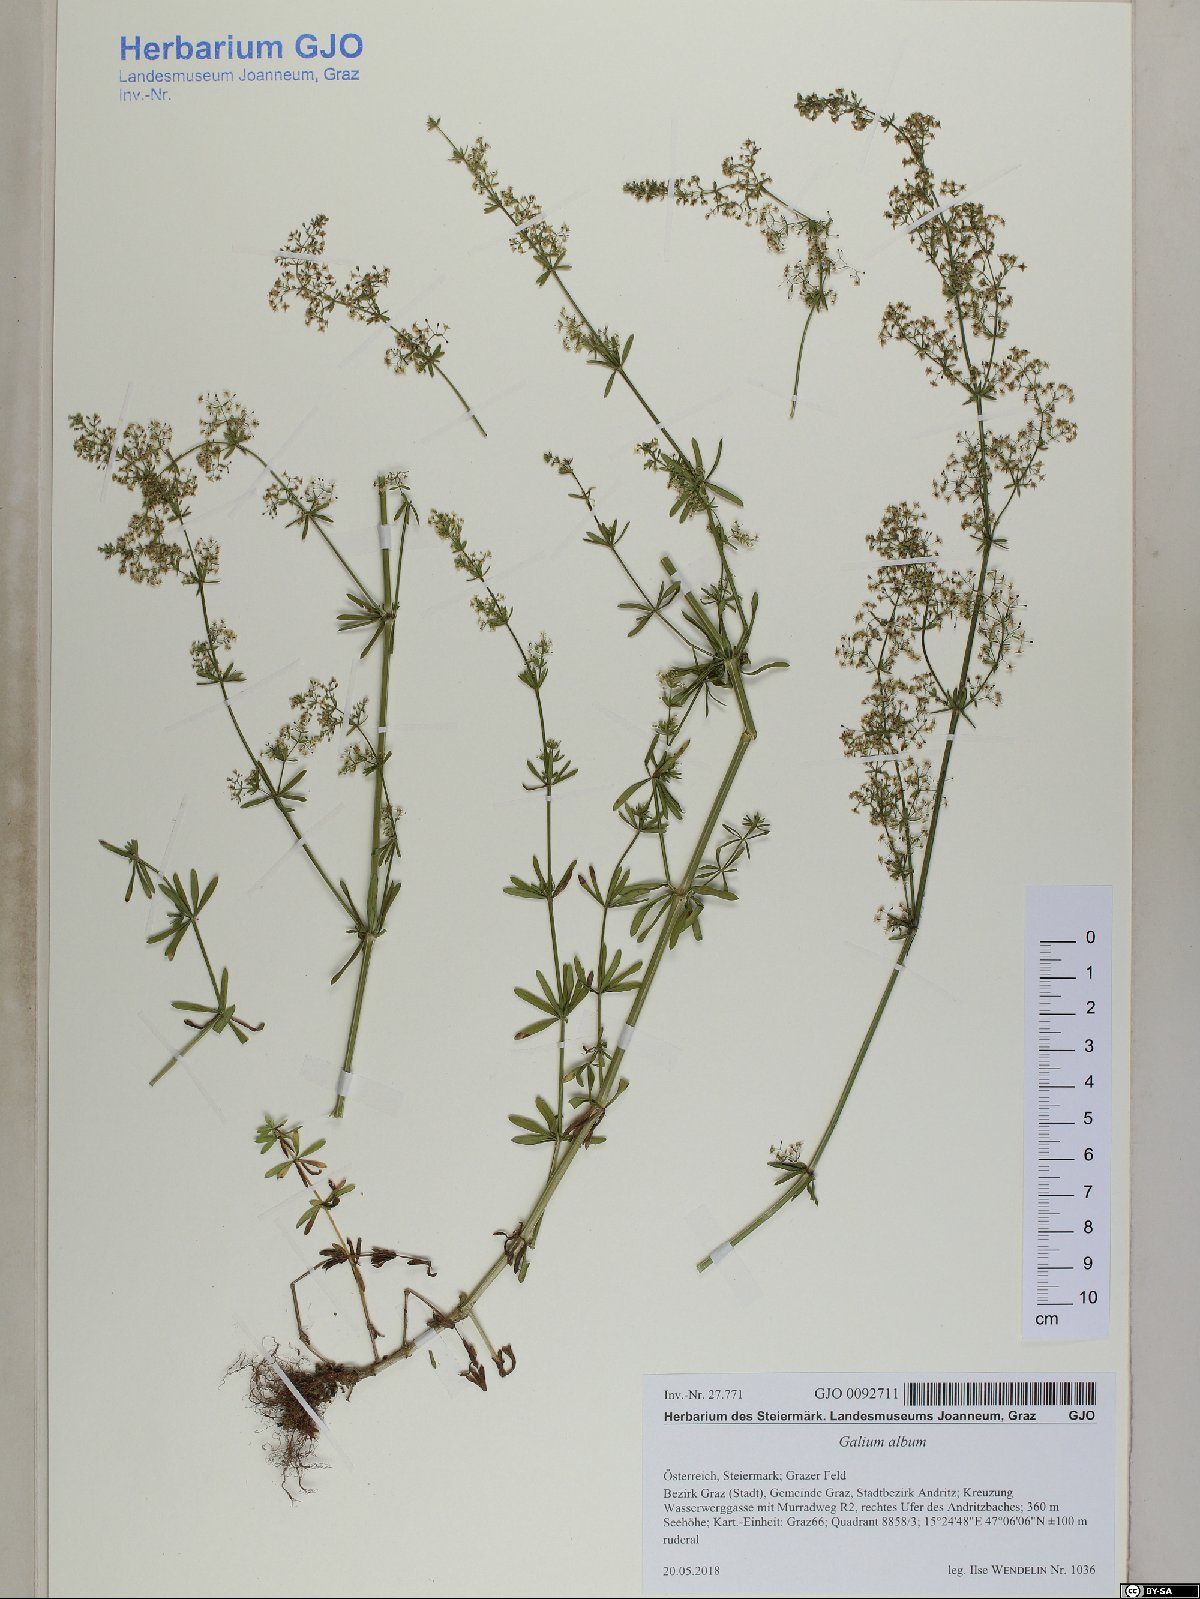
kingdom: Plantae
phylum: Tracheophyta
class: Magnoliopsida
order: Gentianales
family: Rubiaceae
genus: Galium
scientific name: Galium album
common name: White bedstraw
